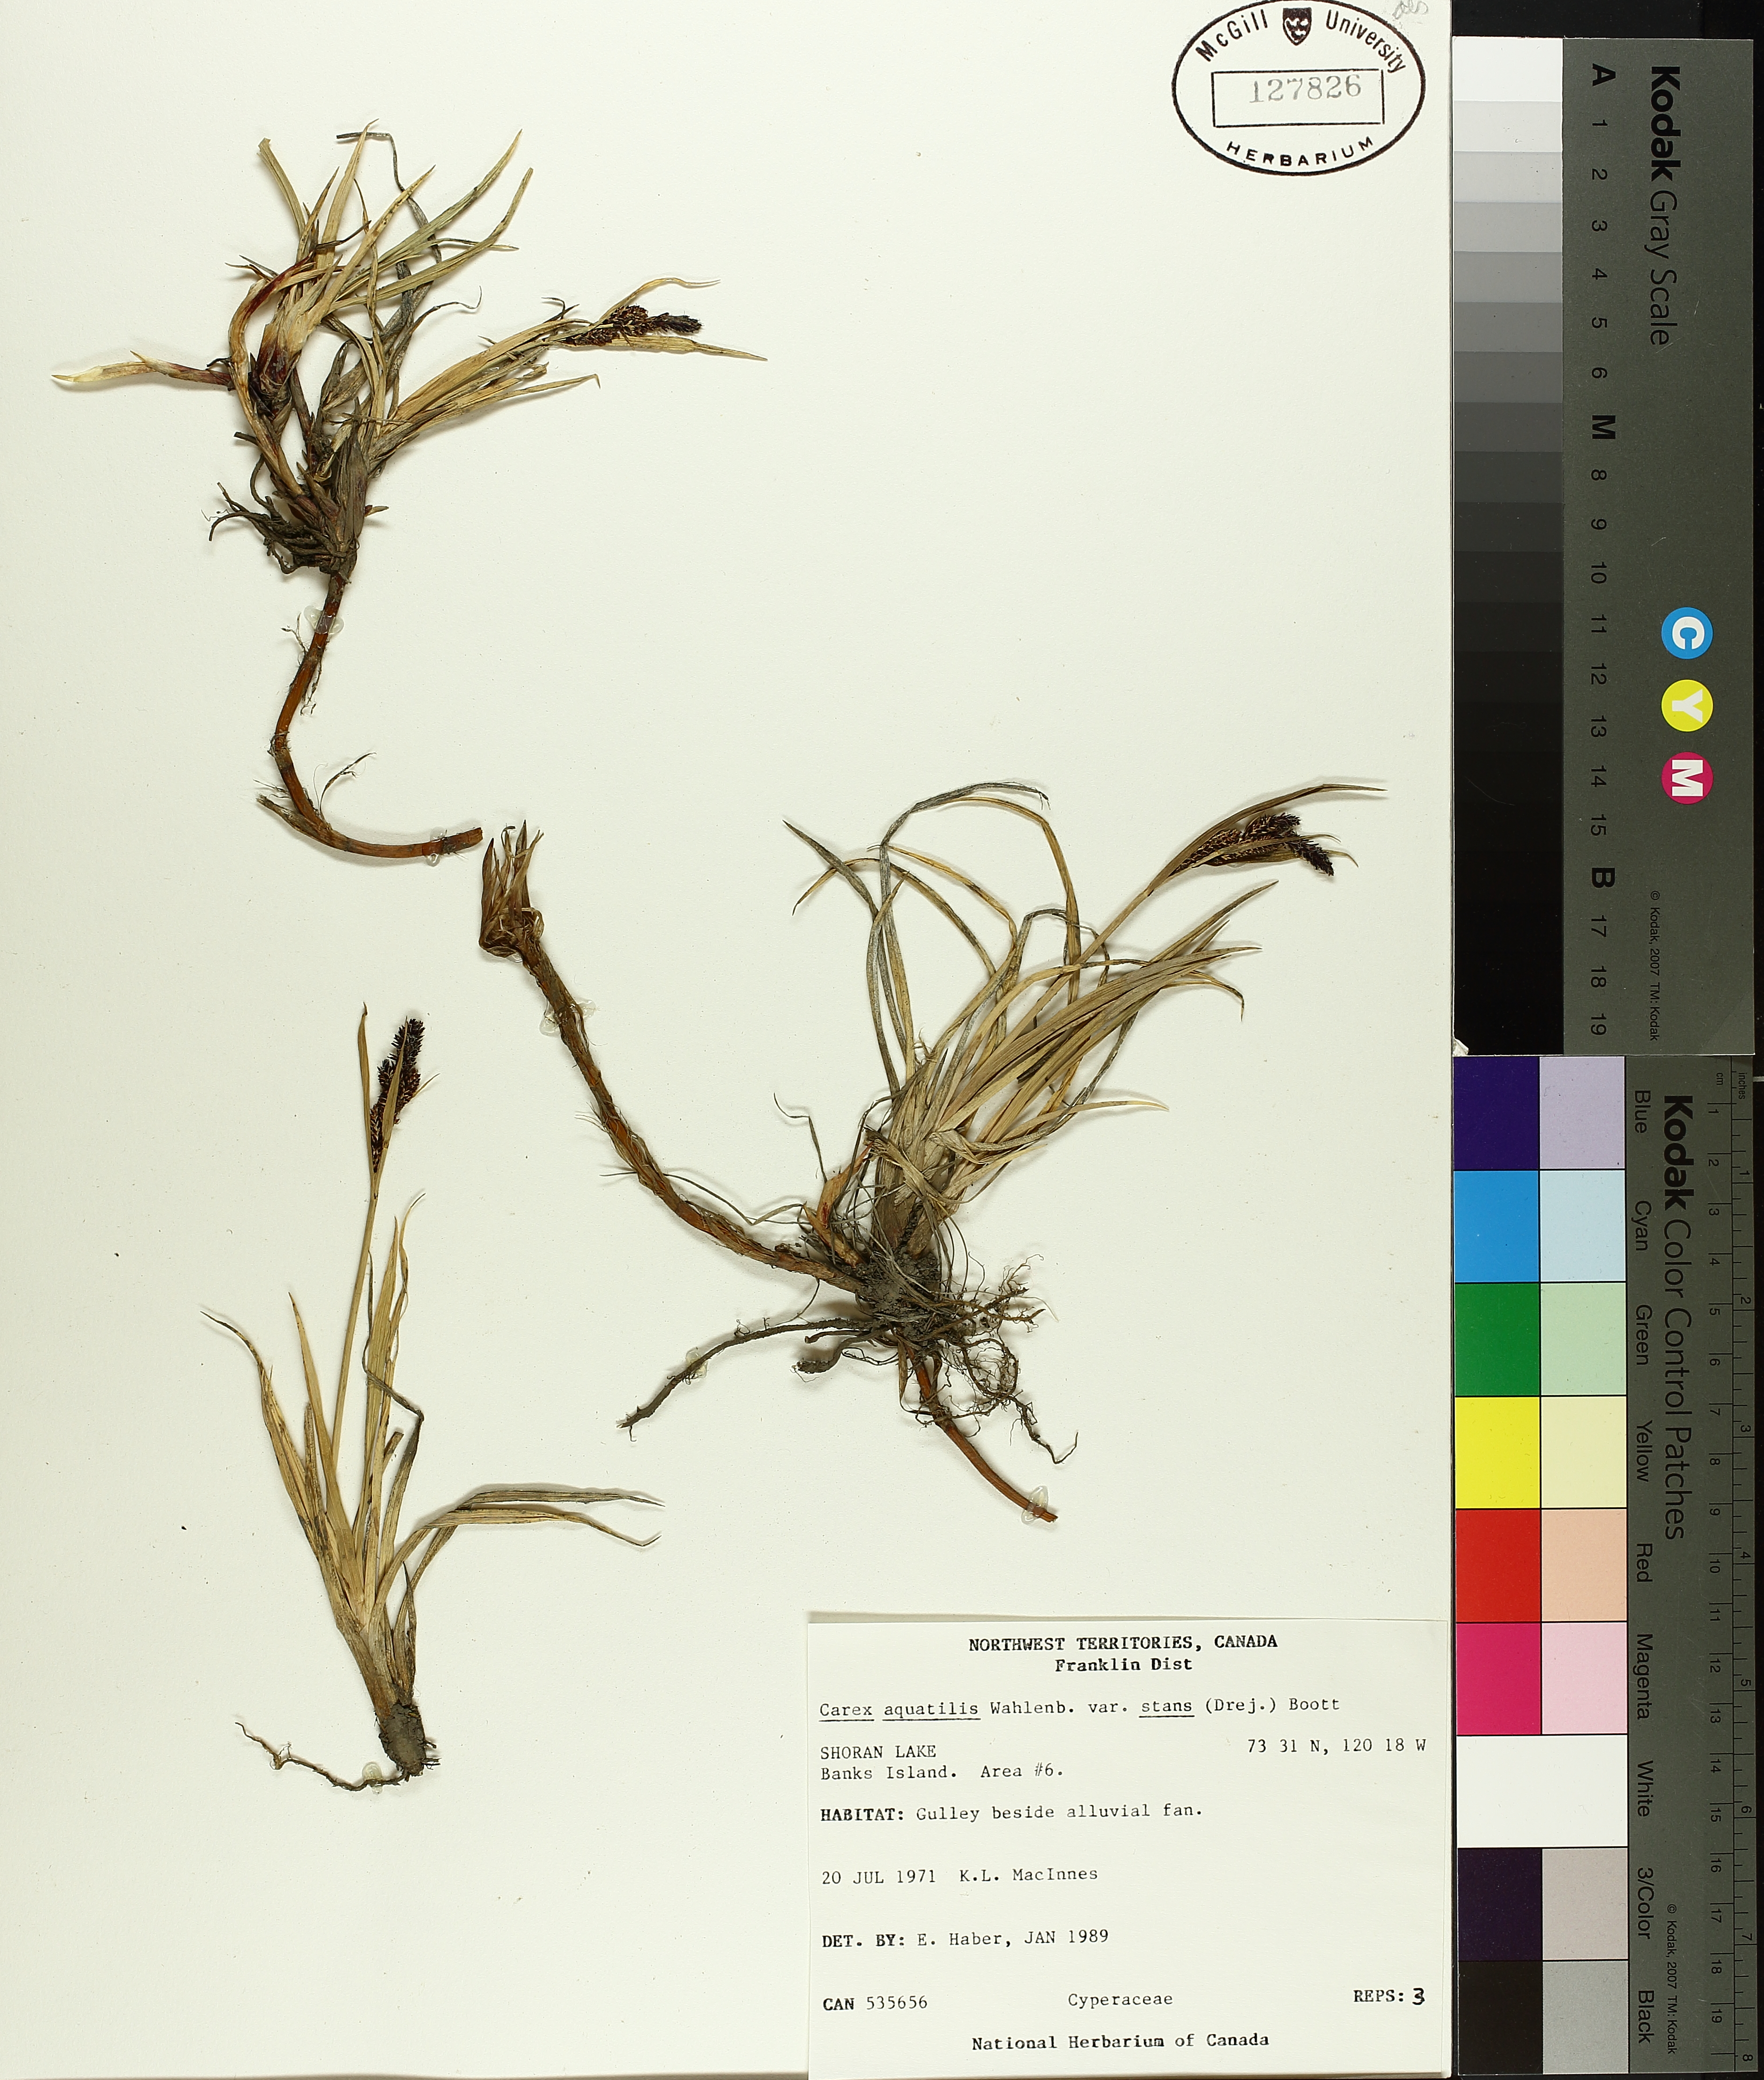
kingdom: Plantae
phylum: Tracheophyta
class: Liliopsida
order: Poales
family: Cyperaceae
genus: Carex
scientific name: Carex aquatilis
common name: Water sedge
